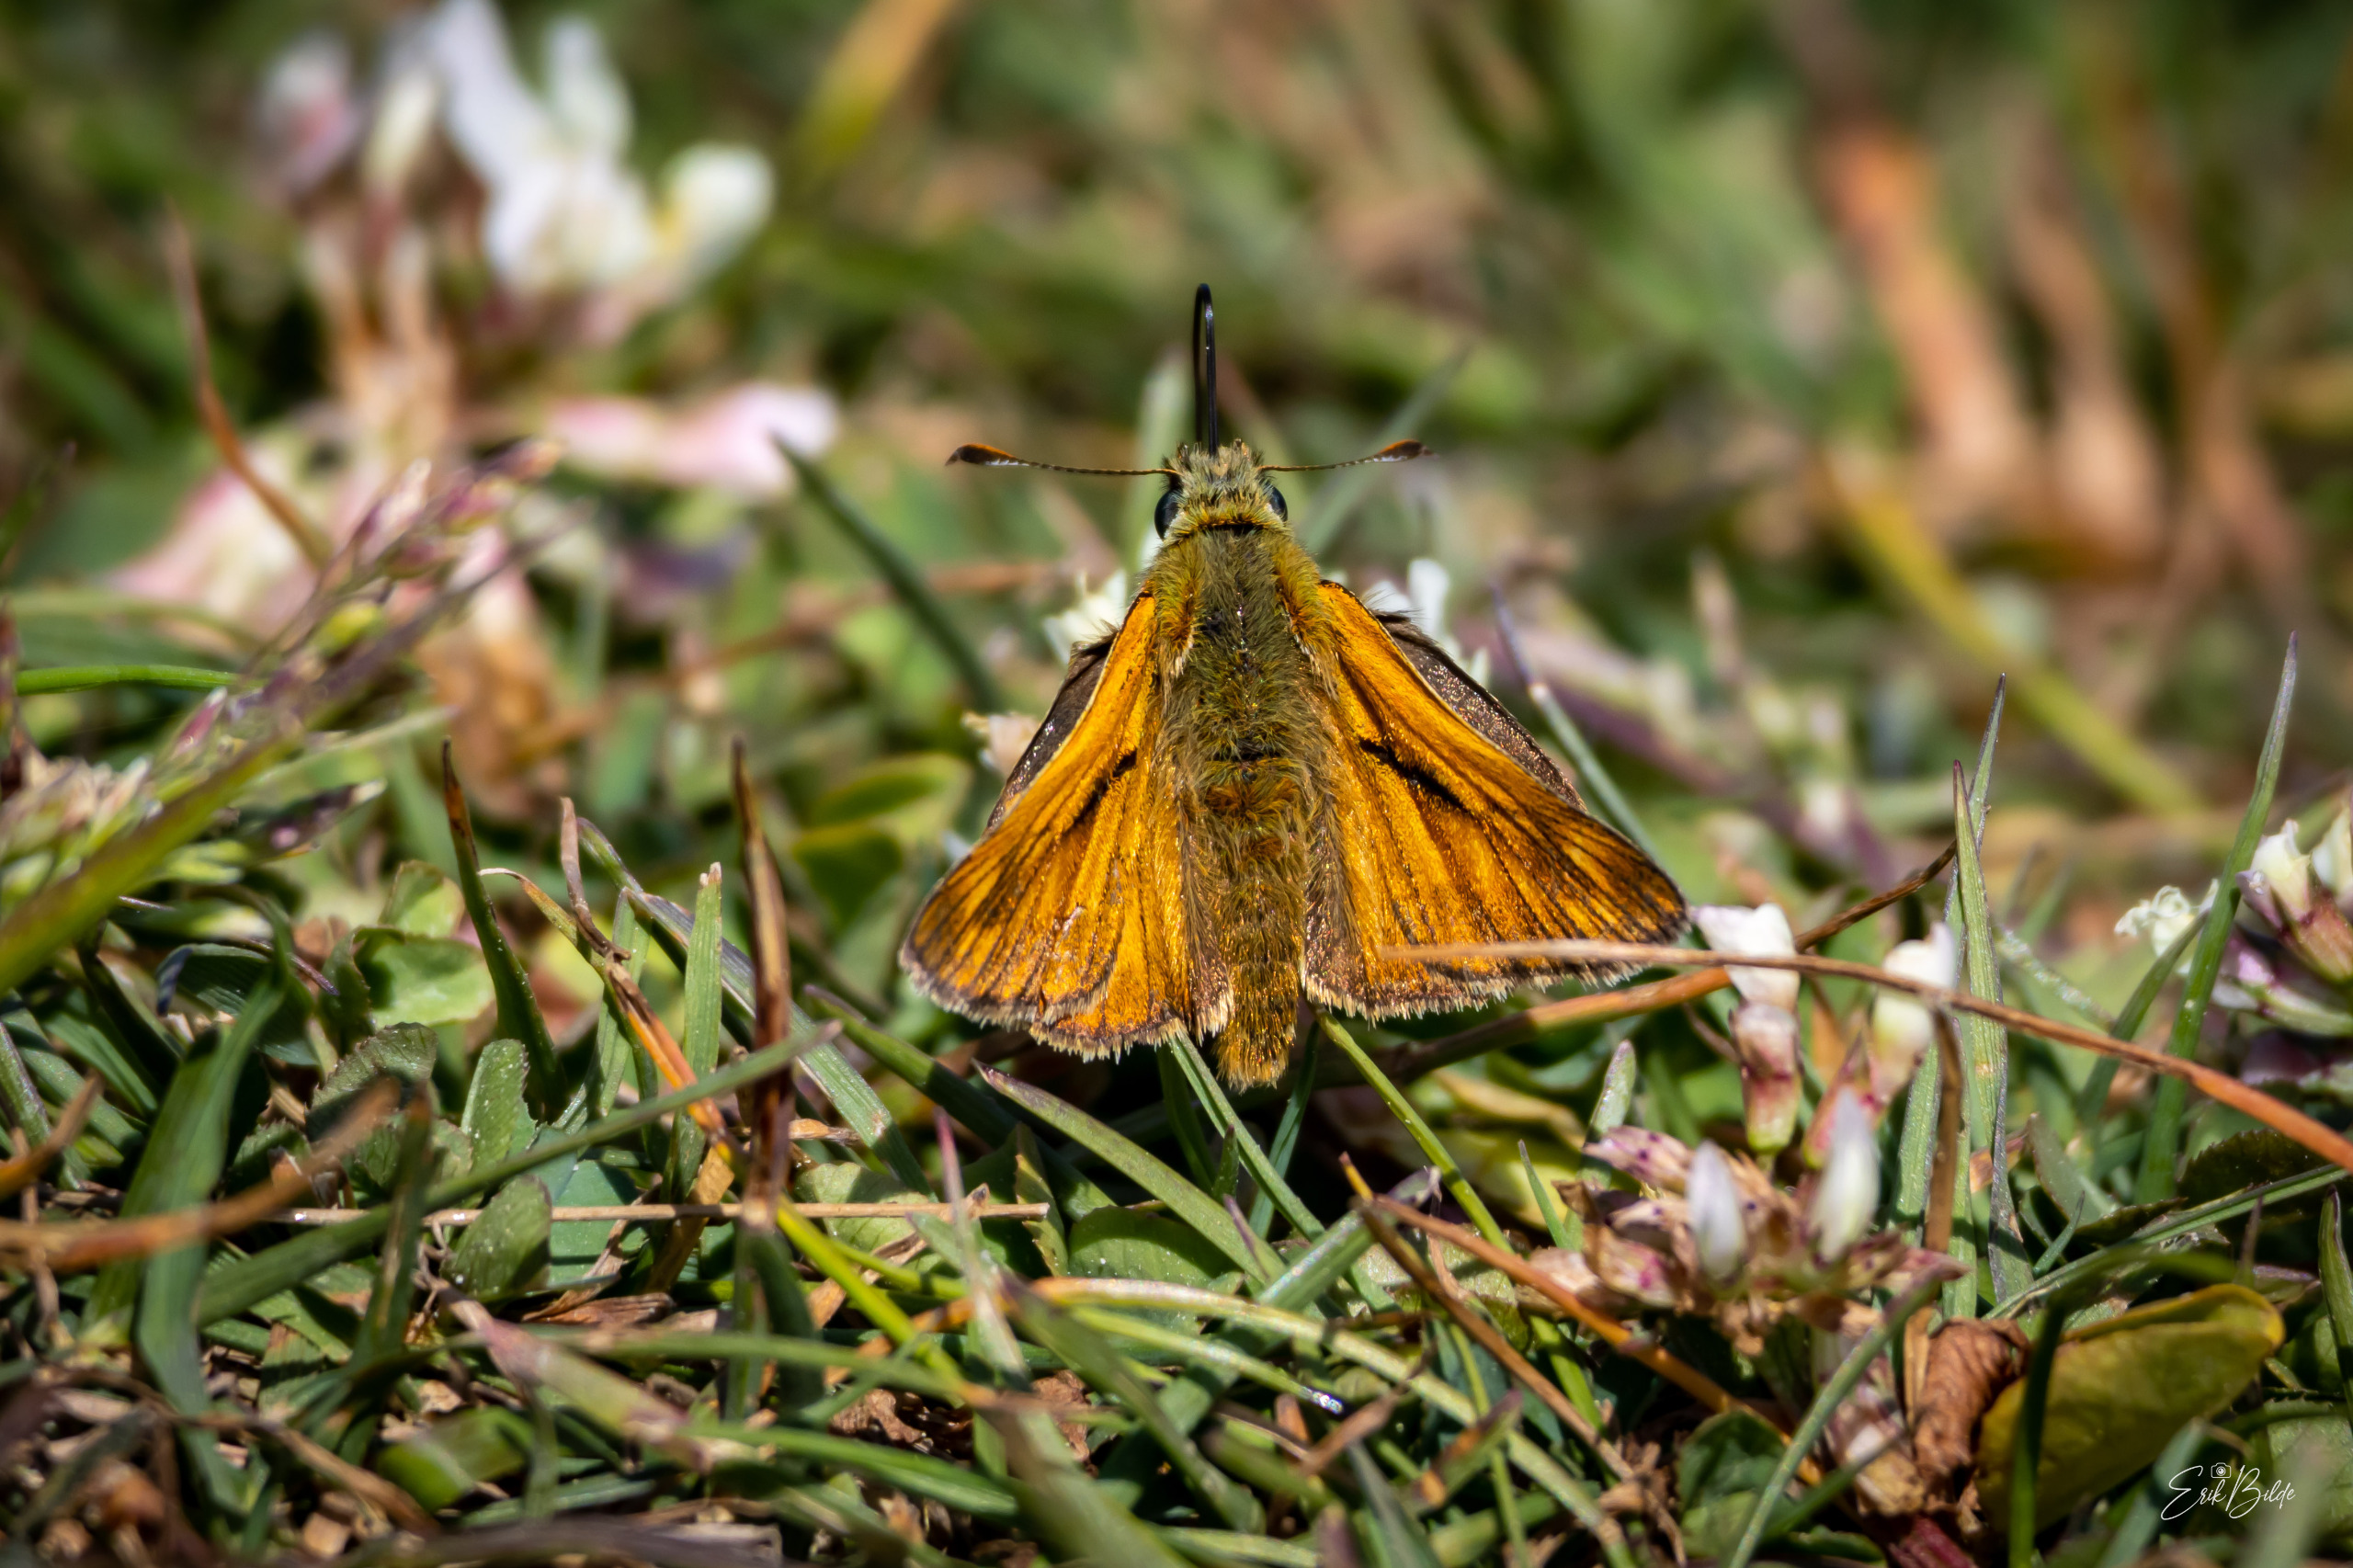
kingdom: Animalia
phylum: Arthropoda
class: Insecta
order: Lepidoptera
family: Hesperiidae
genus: Ochlodes
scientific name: Ochlodes venata
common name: Stor bredpande
